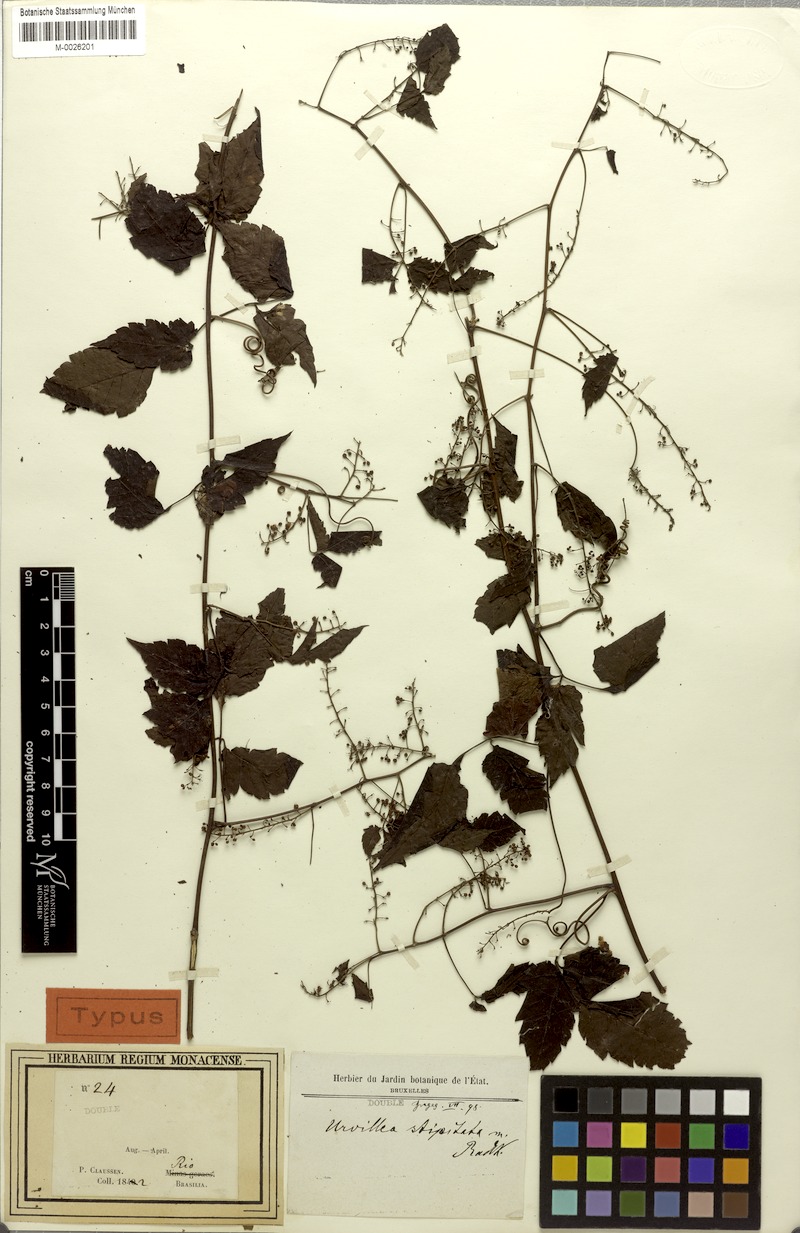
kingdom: Plantae
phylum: Tracheophyta
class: Magnoliopsida
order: Sapindales
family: Sapindaceae
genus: Urvillea
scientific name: Urvillea stipitata
